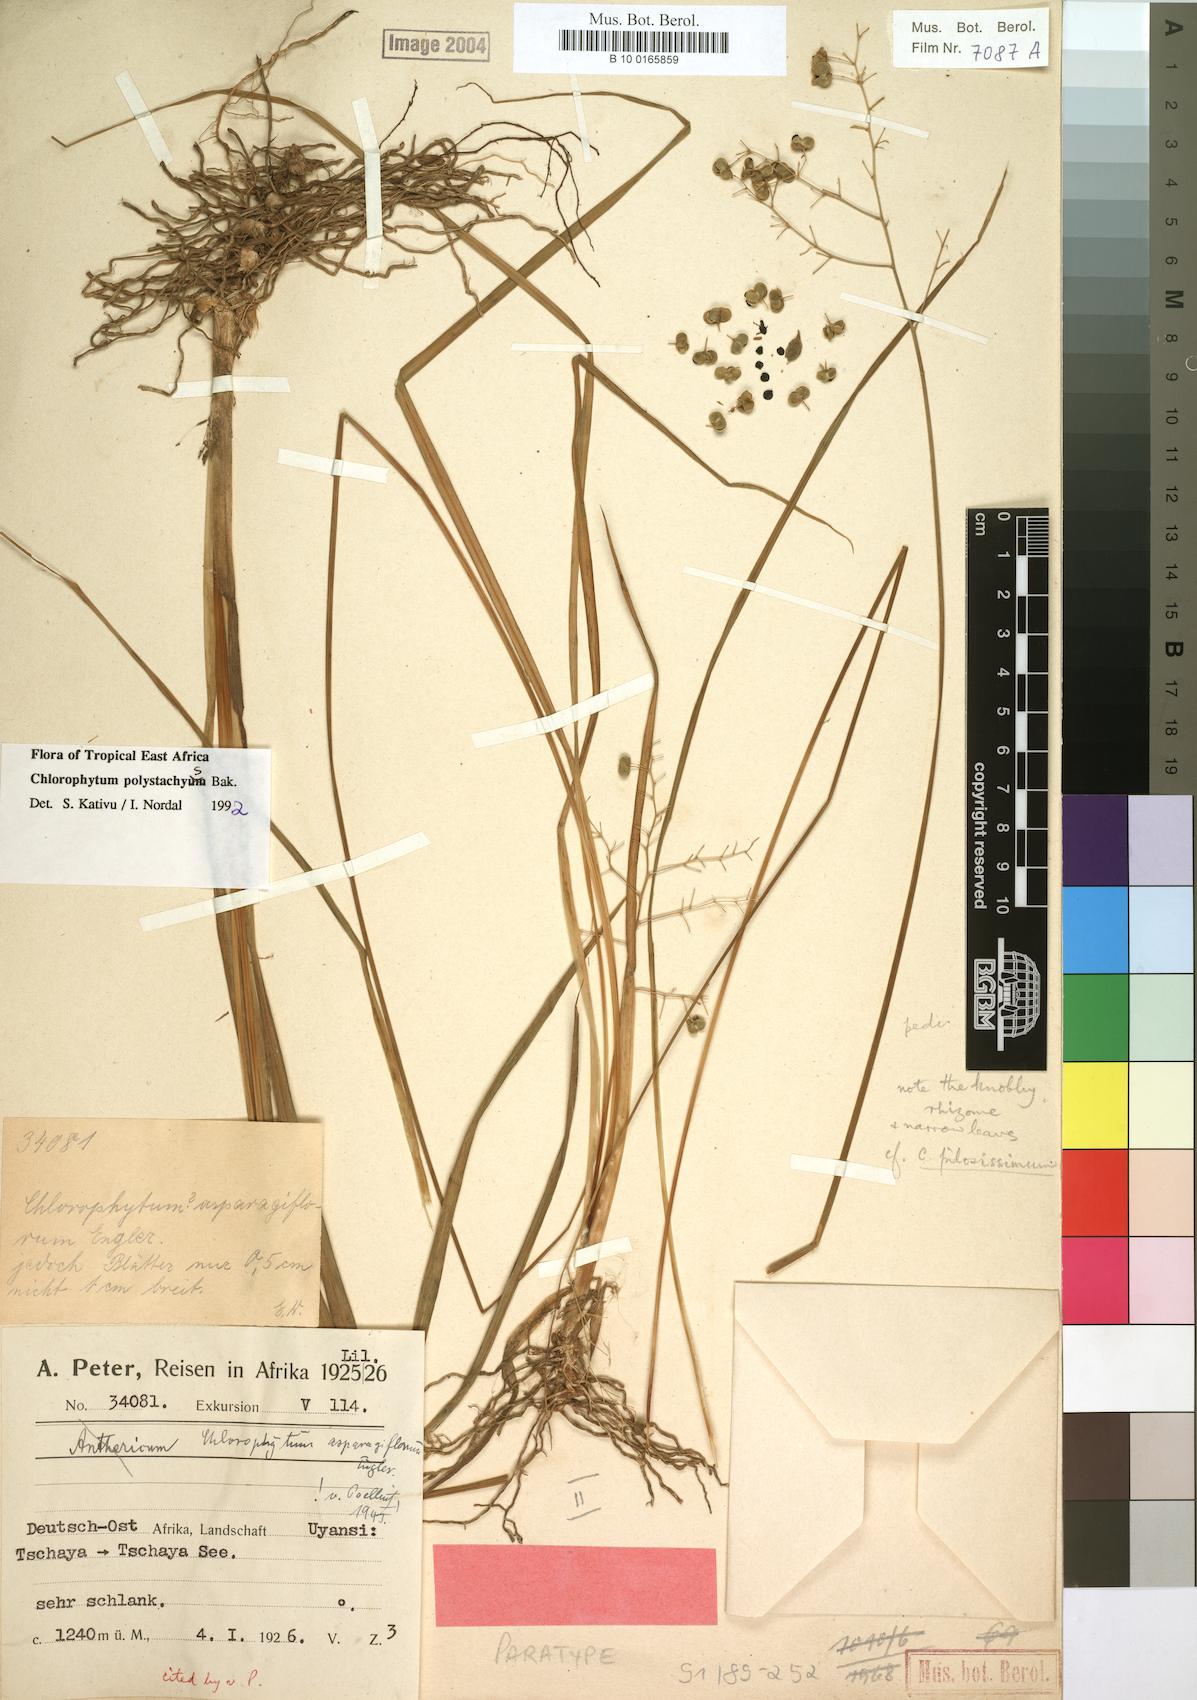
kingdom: Plantae
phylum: Tracheophyta
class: Liliopsida
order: Asparagales
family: Asparagaceae
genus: Chlorophytum
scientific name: Chlorophytum polystachys
